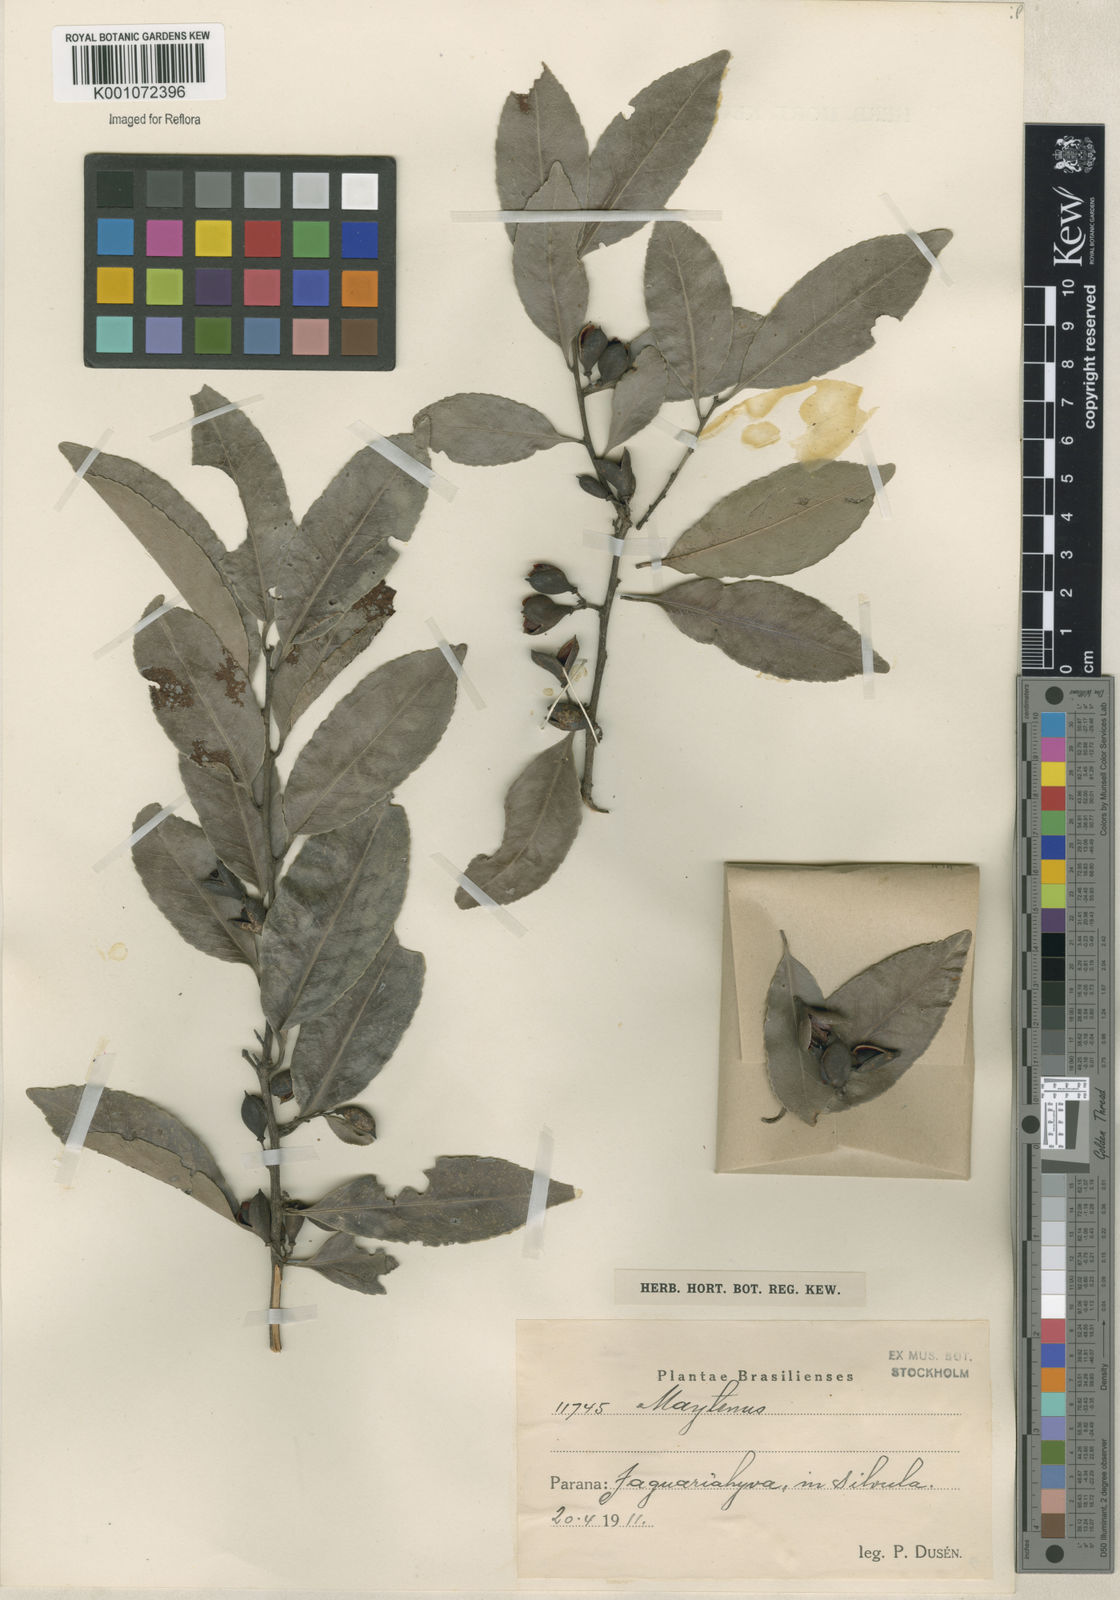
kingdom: Plantae
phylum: Tracheophyta
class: Magnoliopsida
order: Celastrales
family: Celastraceae
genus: Maytenus
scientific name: Maytenus
